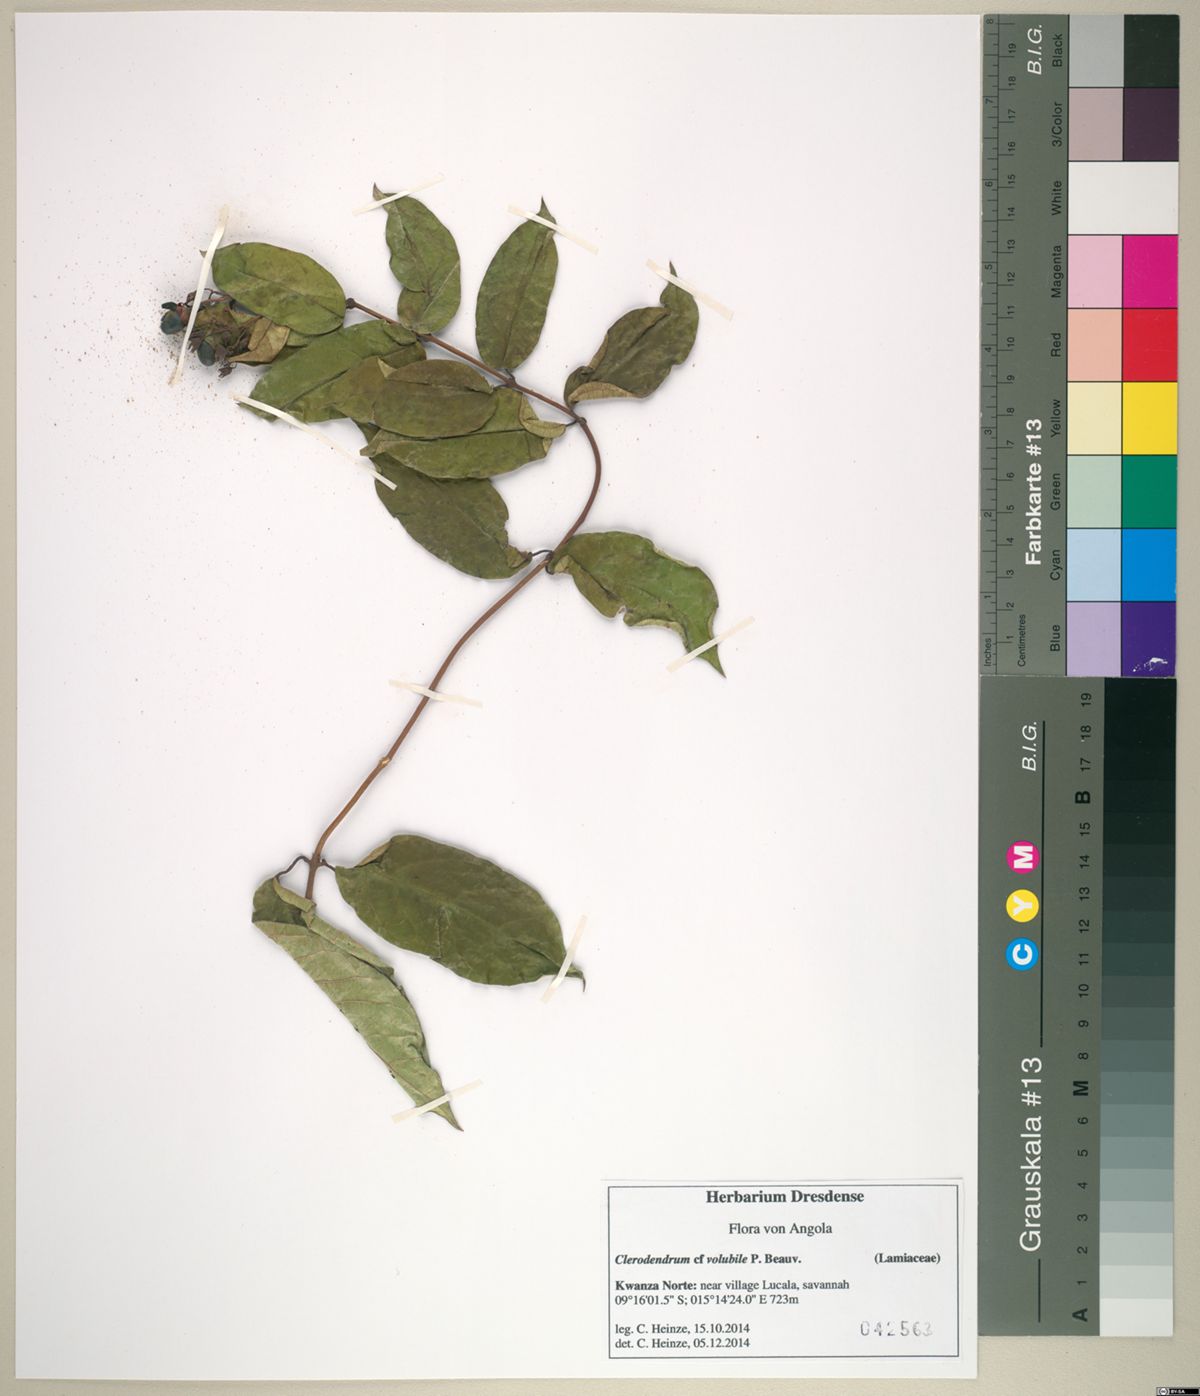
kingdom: Plantae
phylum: Tracheophyta
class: Magnoliopsida
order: Lamiales
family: Lamiaceae
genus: Clerodendrum
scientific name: Clerodendrum volubile
